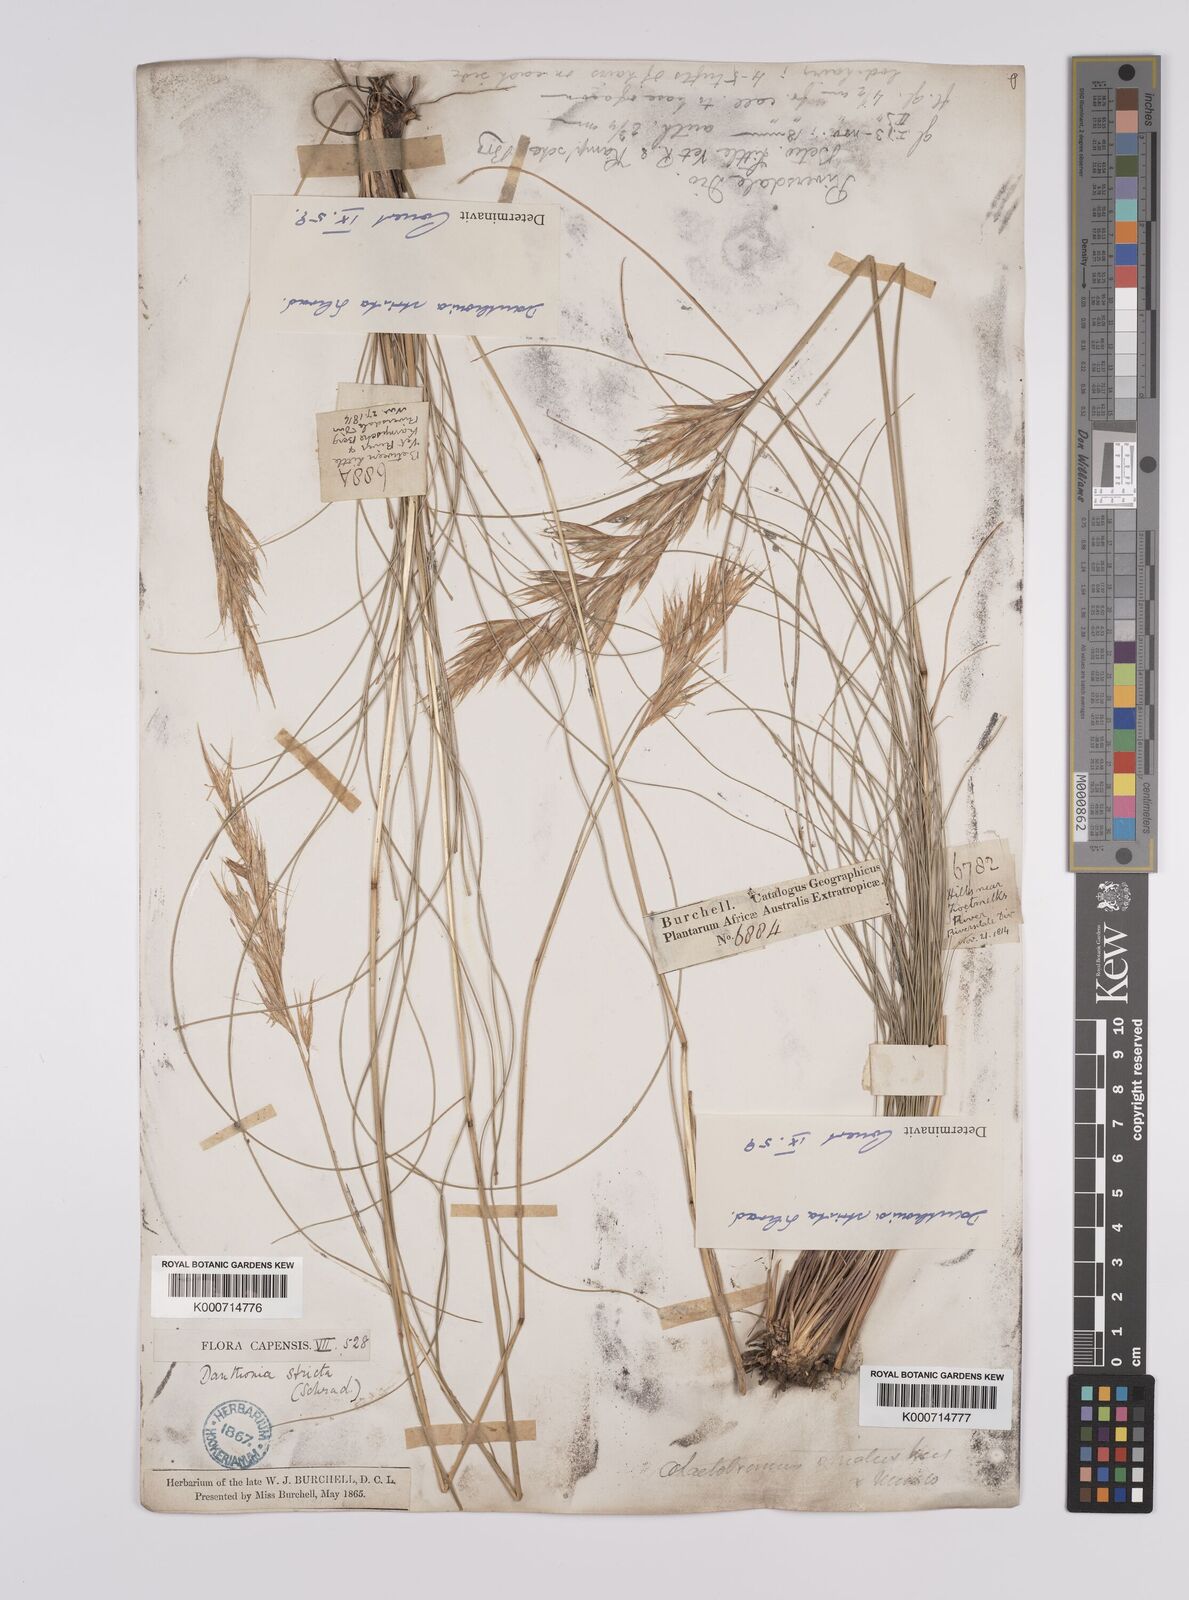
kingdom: Plantae
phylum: Tracheophyta
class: Liliopsida
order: Poales
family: Poaceae
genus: Rytidosperma
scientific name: Rytidosperma
